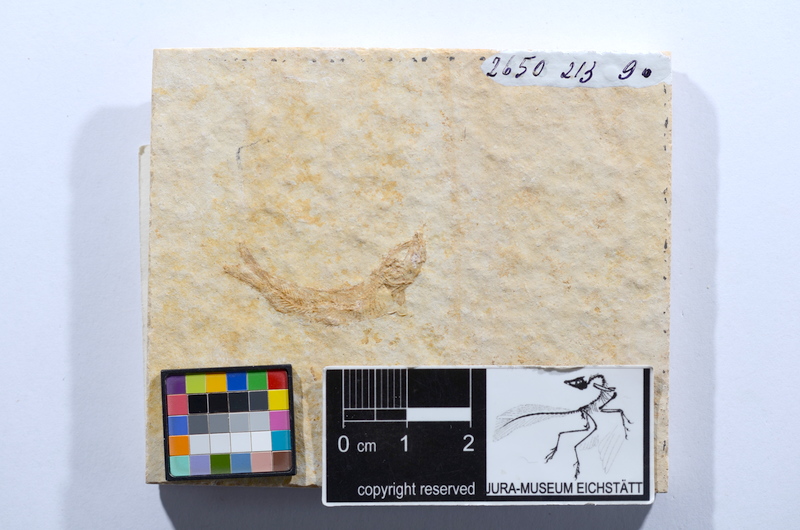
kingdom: Animalia
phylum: Chordata
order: Salmoniformes
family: Orthogonikleithridae
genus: Leptolepides
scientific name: Leptolepides sprattiformis
